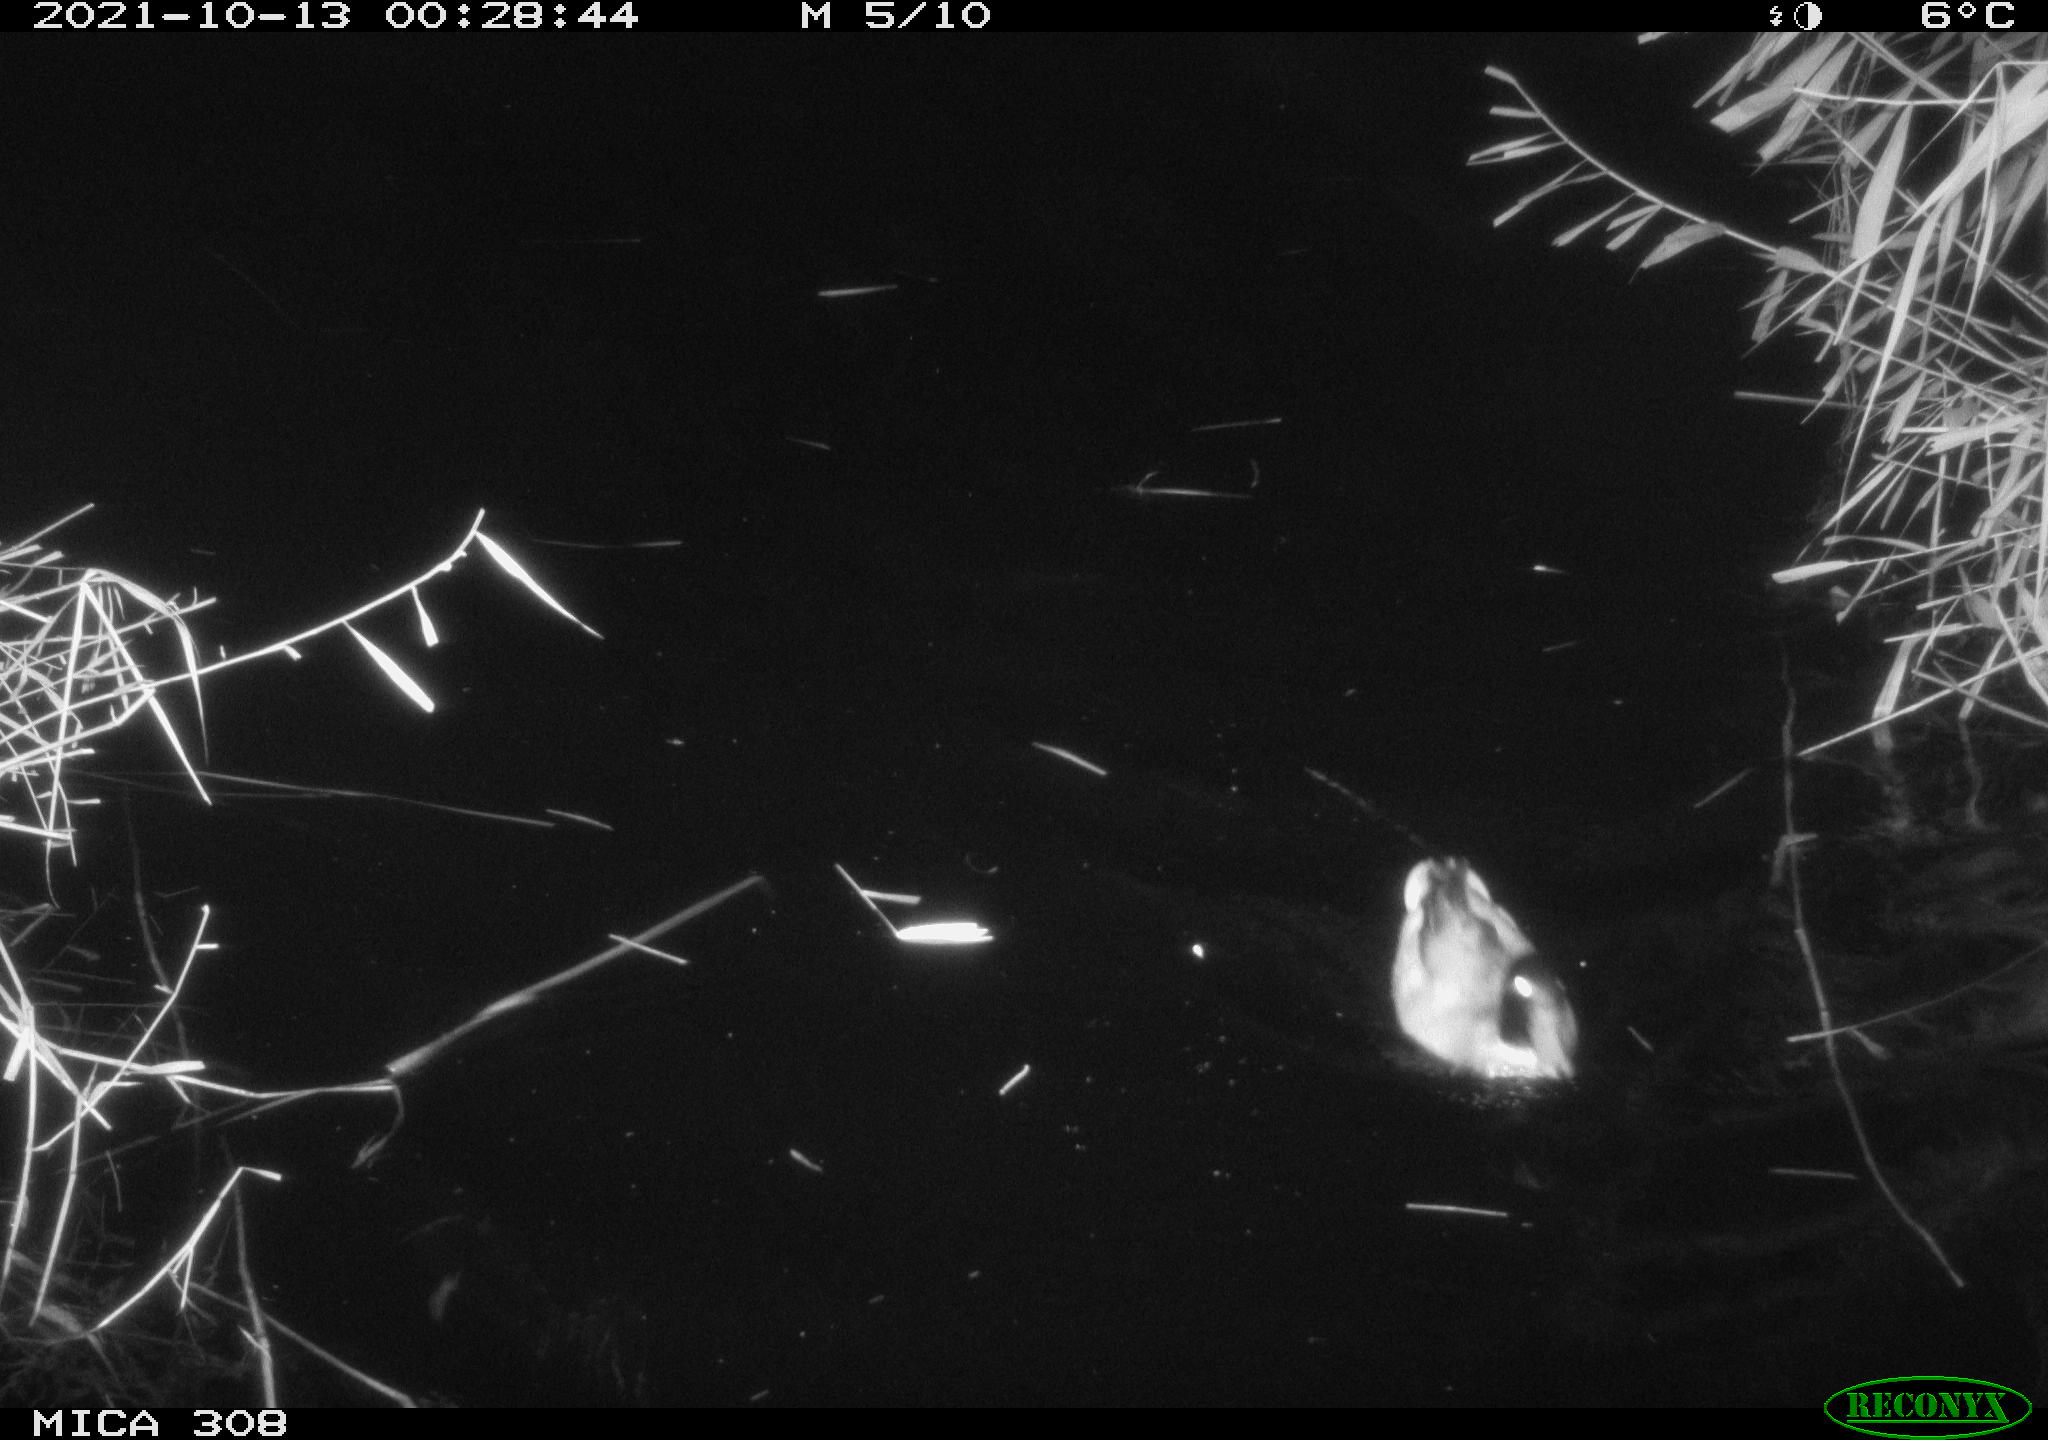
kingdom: Animalia
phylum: Chordata
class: Aves
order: Anseriformes
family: Anatidae
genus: Anas
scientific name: Anas platyrhynchos
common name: Mallard
